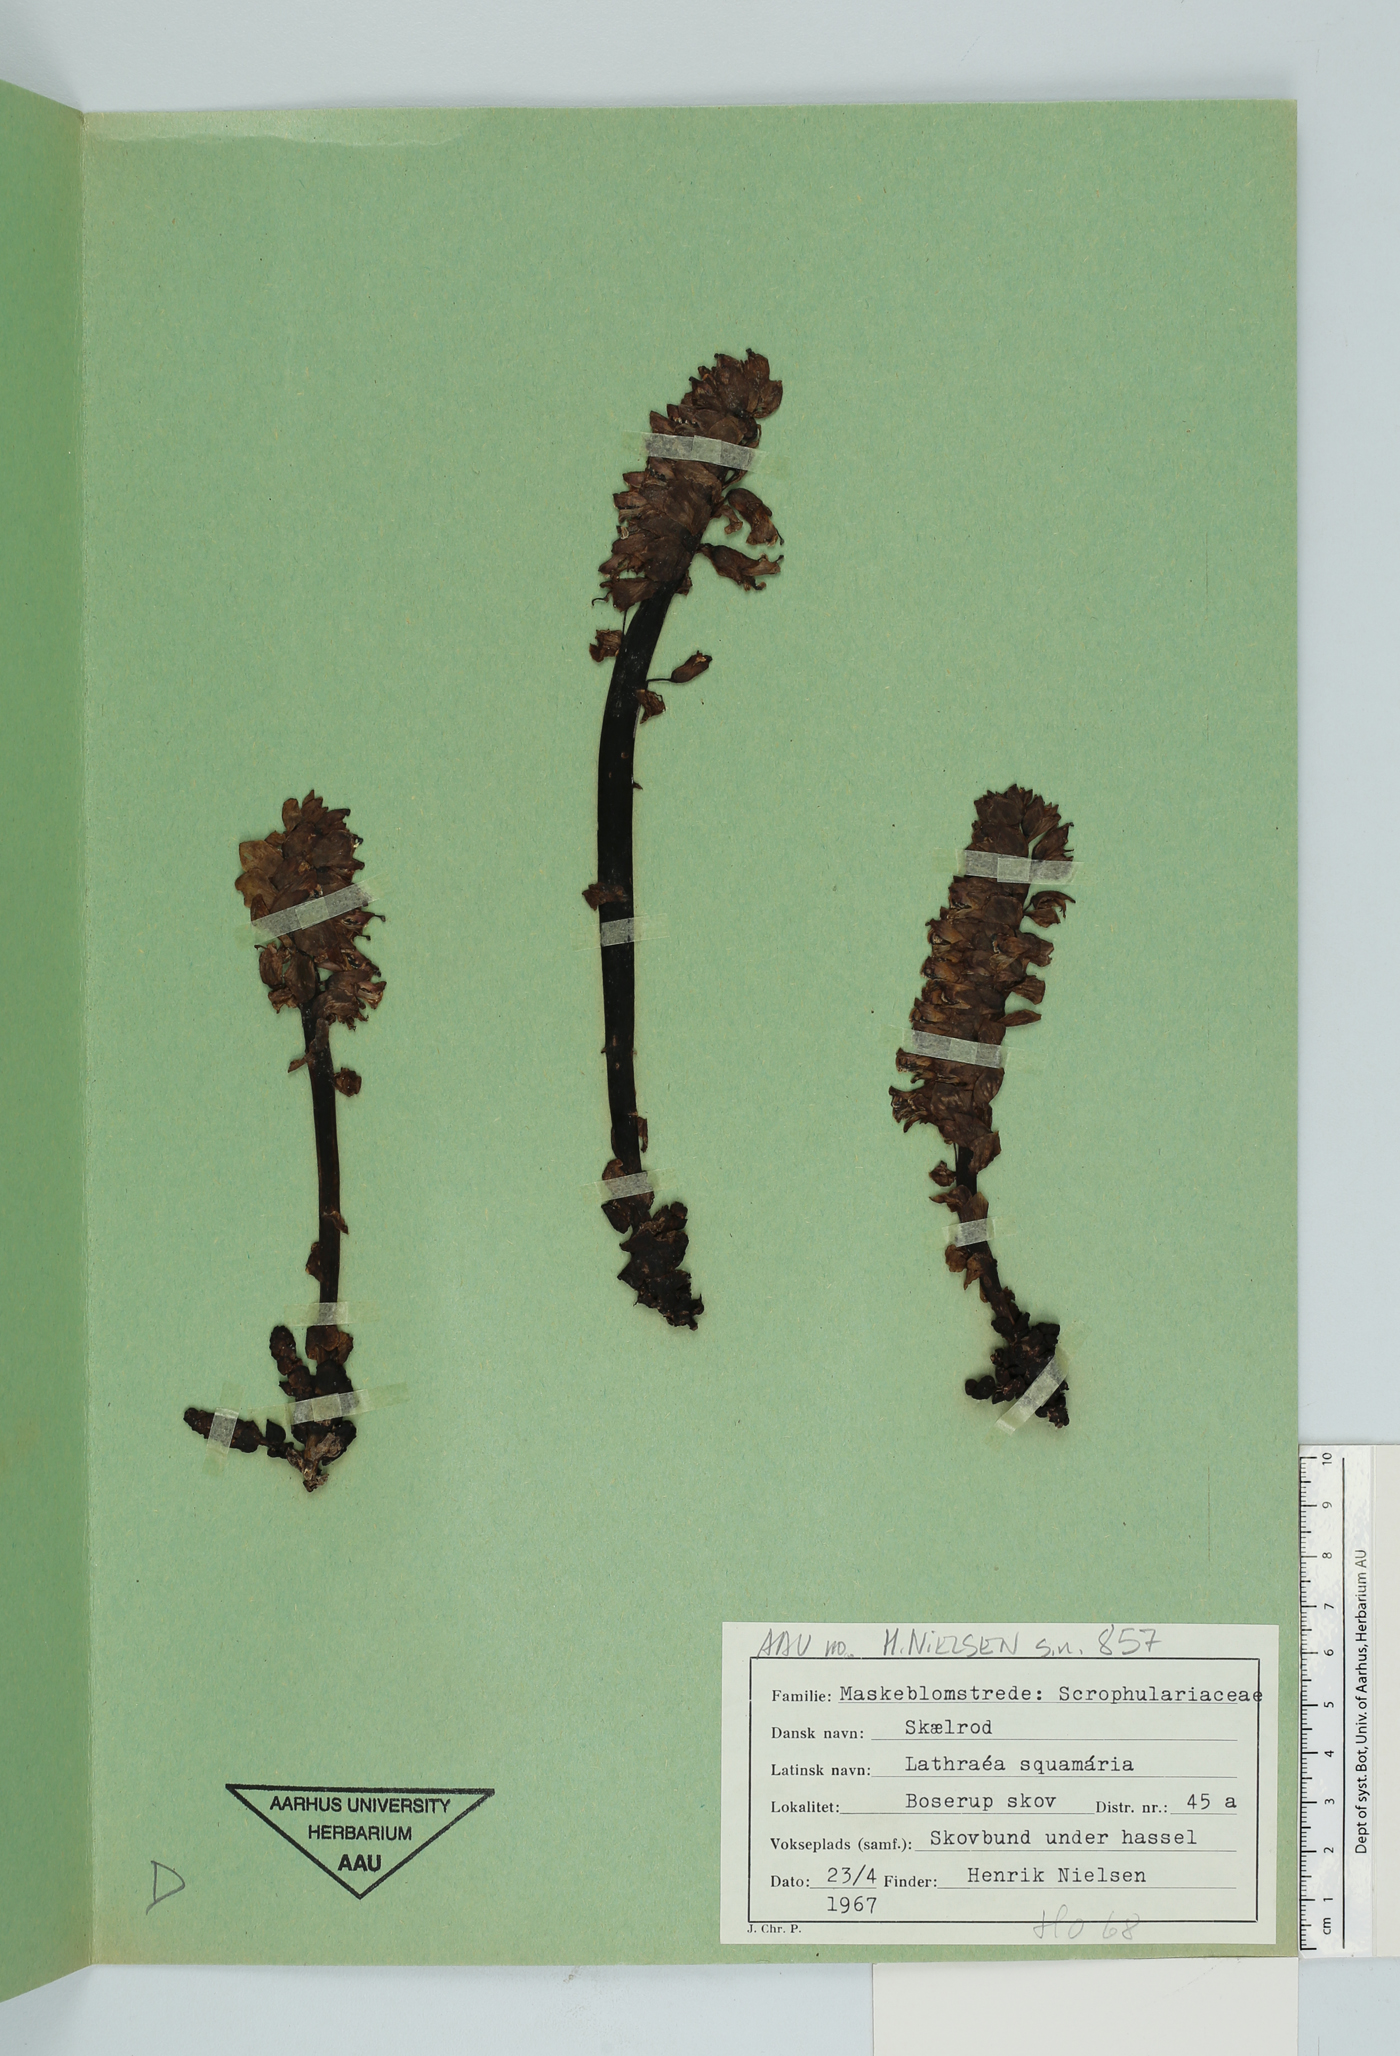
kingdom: Plantae
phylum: Tracheophyta
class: Magnoliopsida
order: Lamiales
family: Orobanchaceae
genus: Lathraea
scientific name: Lathraea squamaria
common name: Toothwort
